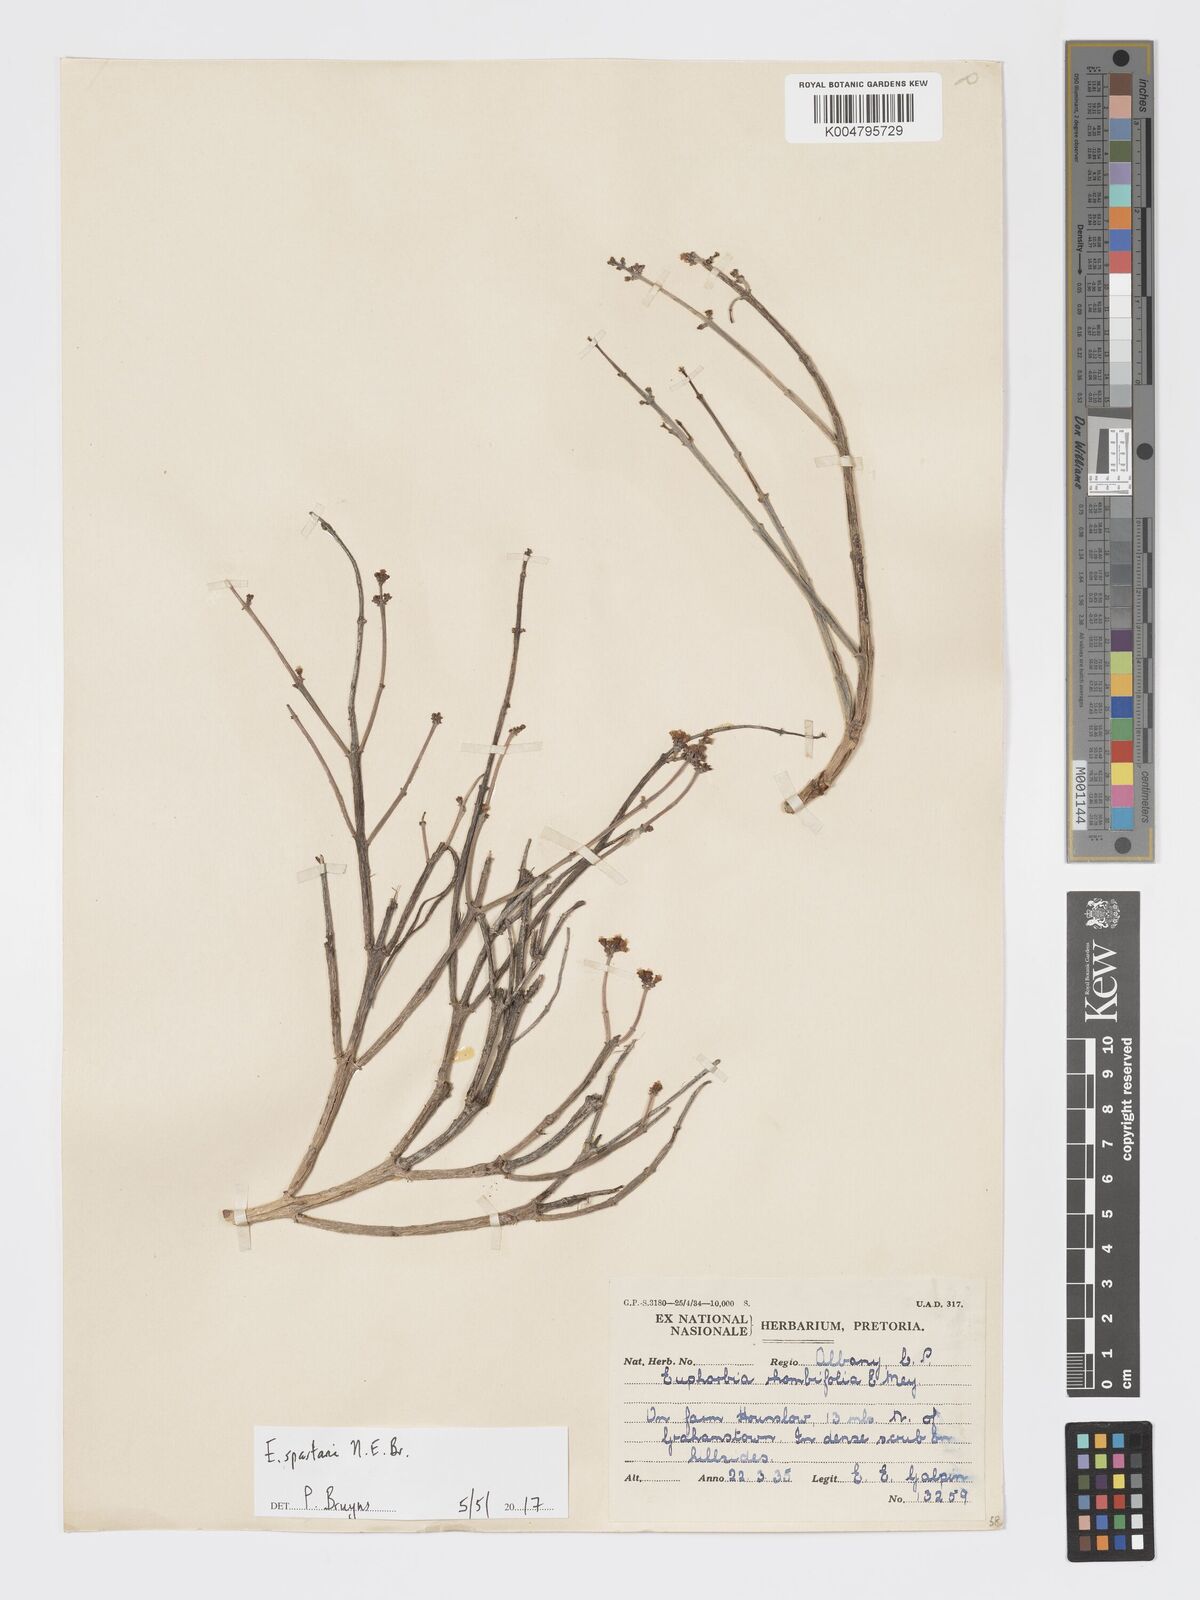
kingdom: Plantae
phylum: Tracheophyta
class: Magnoliopsida
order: Malpighiales
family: Euphorbiaceae
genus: Euphorbia
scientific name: Euphorbia spartaria
